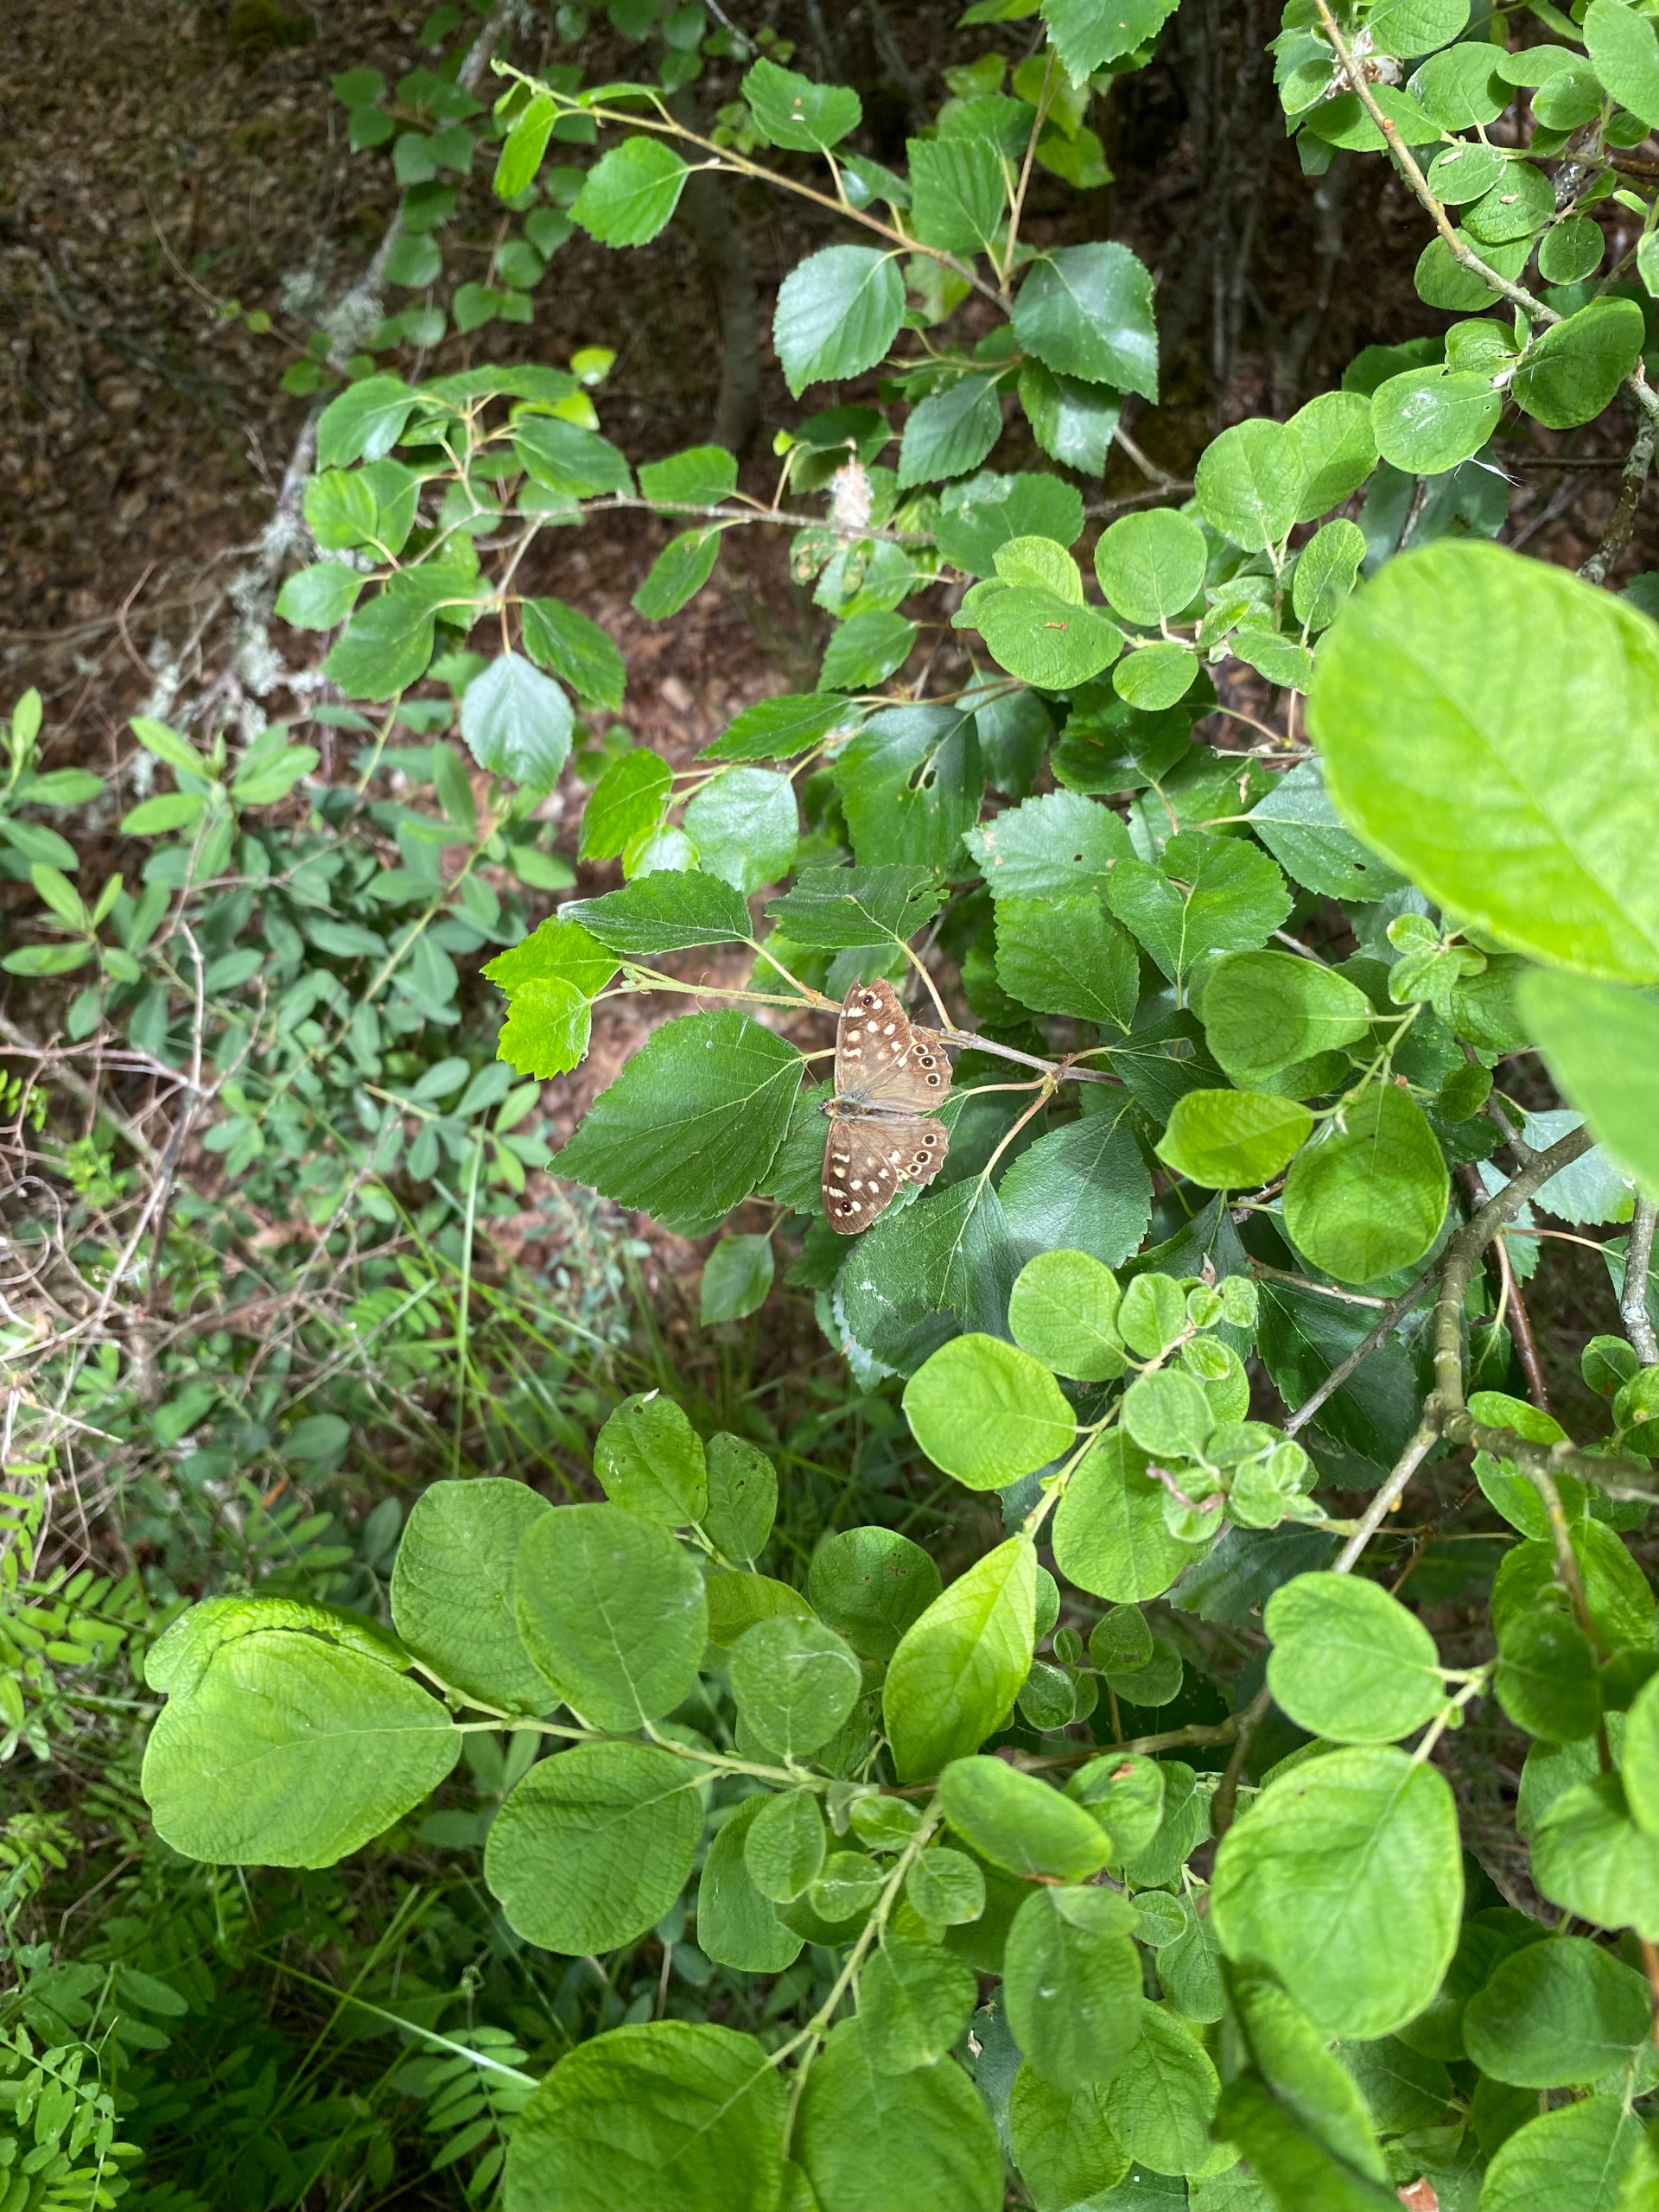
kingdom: Animalia
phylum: Arthropoda
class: Insecta
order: Lepidoptera
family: Nymphalidae
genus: Pararge
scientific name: Pararge aegeria
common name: Skovrandøje
